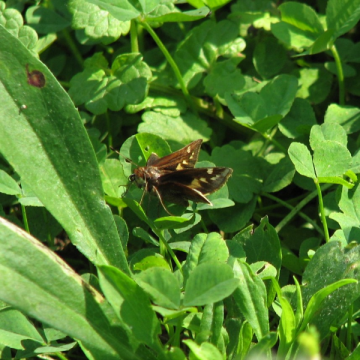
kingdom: Animalia
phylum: Arthropoda
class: Insecta
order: Lepidoptera
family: Hesperiidae
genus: Lon
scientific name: Lon zabulon
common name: Zabulon Skipper
